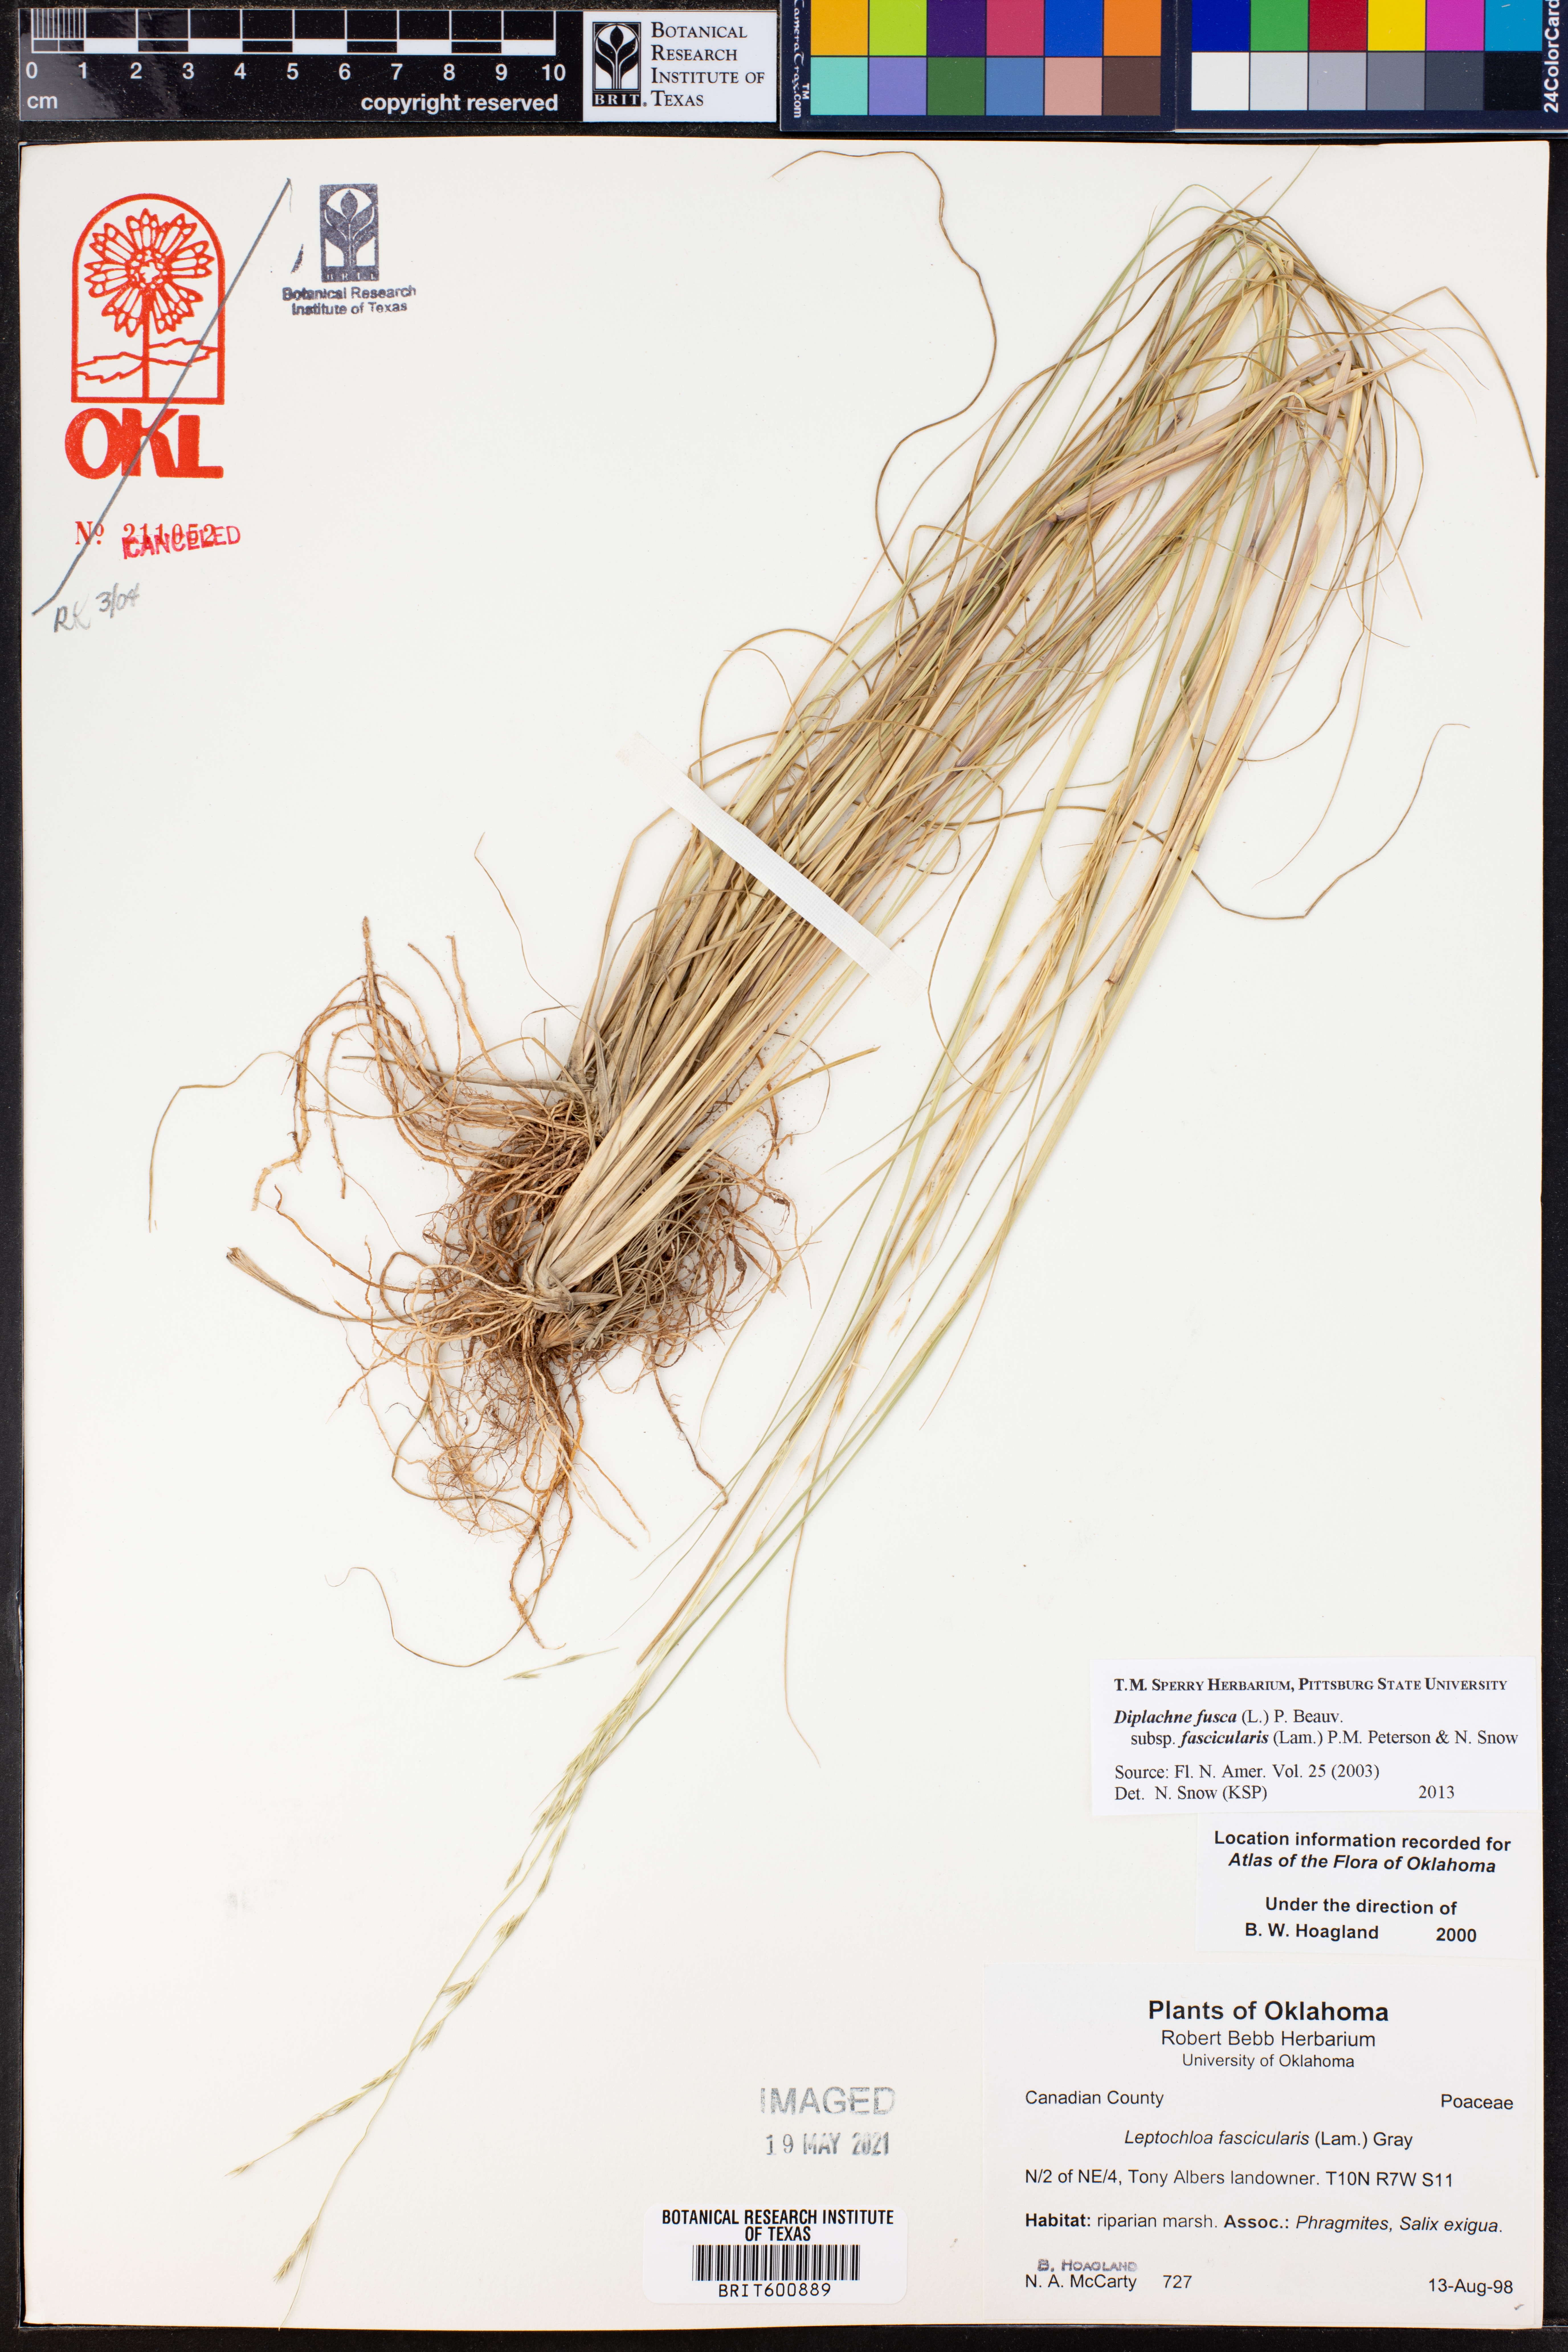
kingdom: Plantae
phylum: Tracheophyta
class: Liliopsida
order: Poales
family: Poaceae
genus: Diplachne
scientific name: Diplachne fusca
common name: Brown beetle grass
